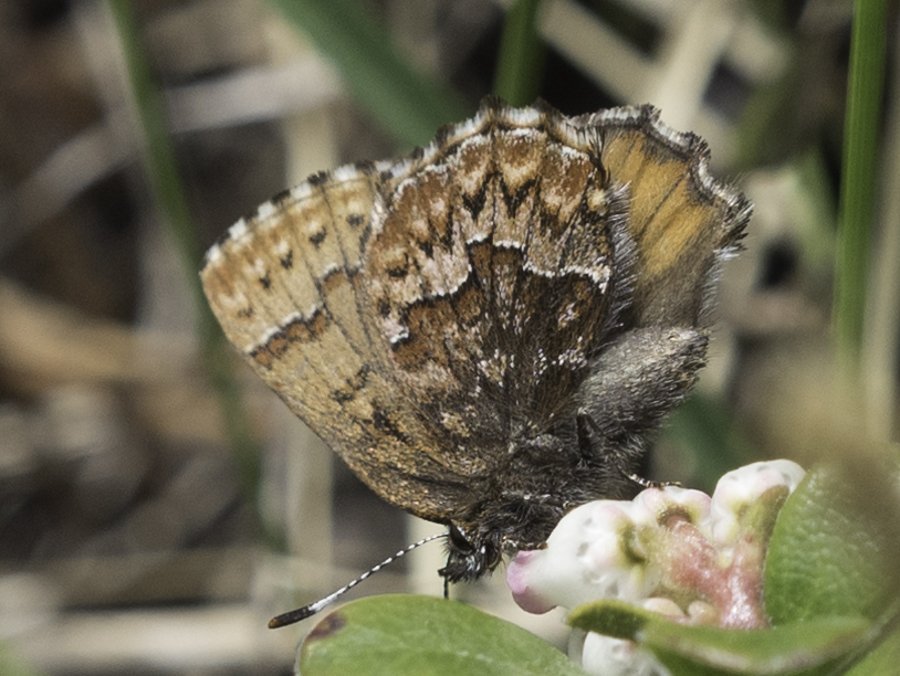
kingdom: Animalia
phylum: Arthropoda
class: Insecta
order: Lepidoptera
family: Lycaenidae
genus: Incisalia
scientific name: Incisalia eryphon
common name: Western Pine Elfin
